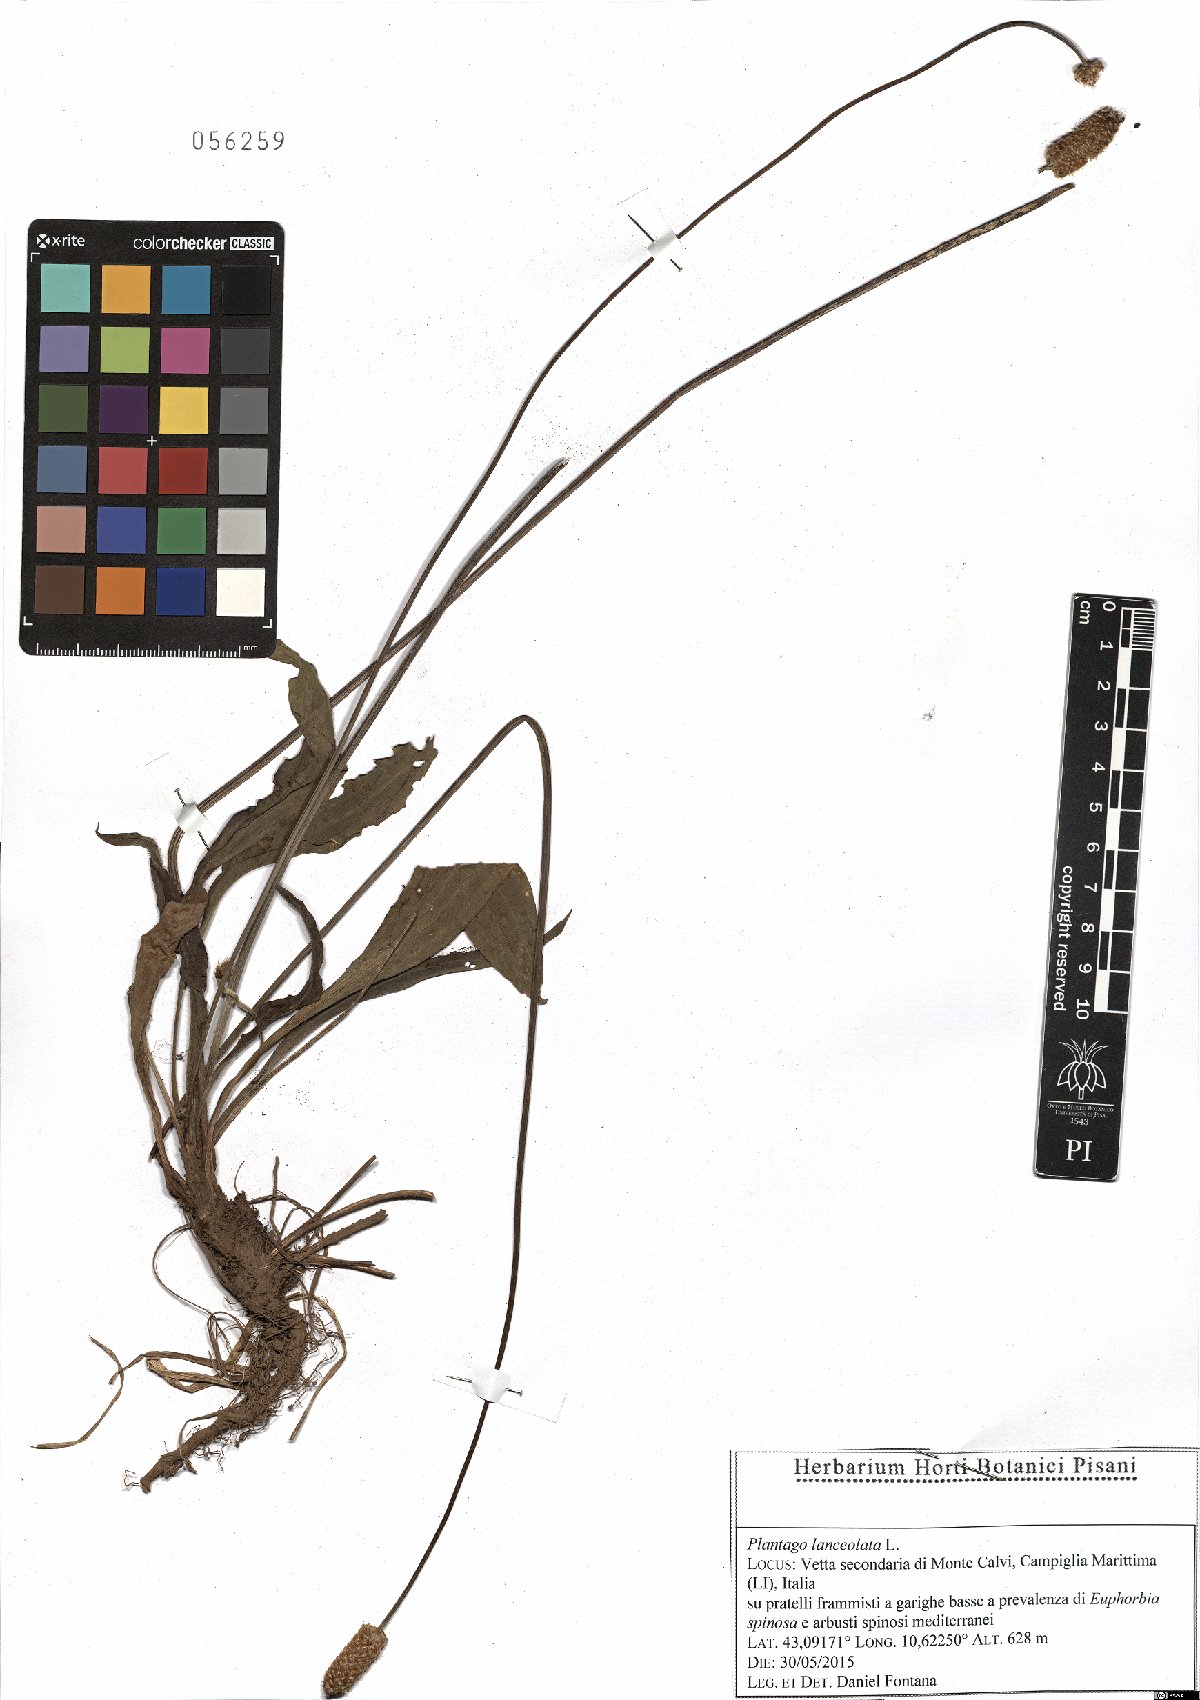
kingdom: Plantae
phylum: Tracheophyta
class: Magnoliopsida
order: Lamiales
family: Plantaginaceae
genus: Plantago
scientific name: Plantago lanceolata
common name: Ribwort plantain
